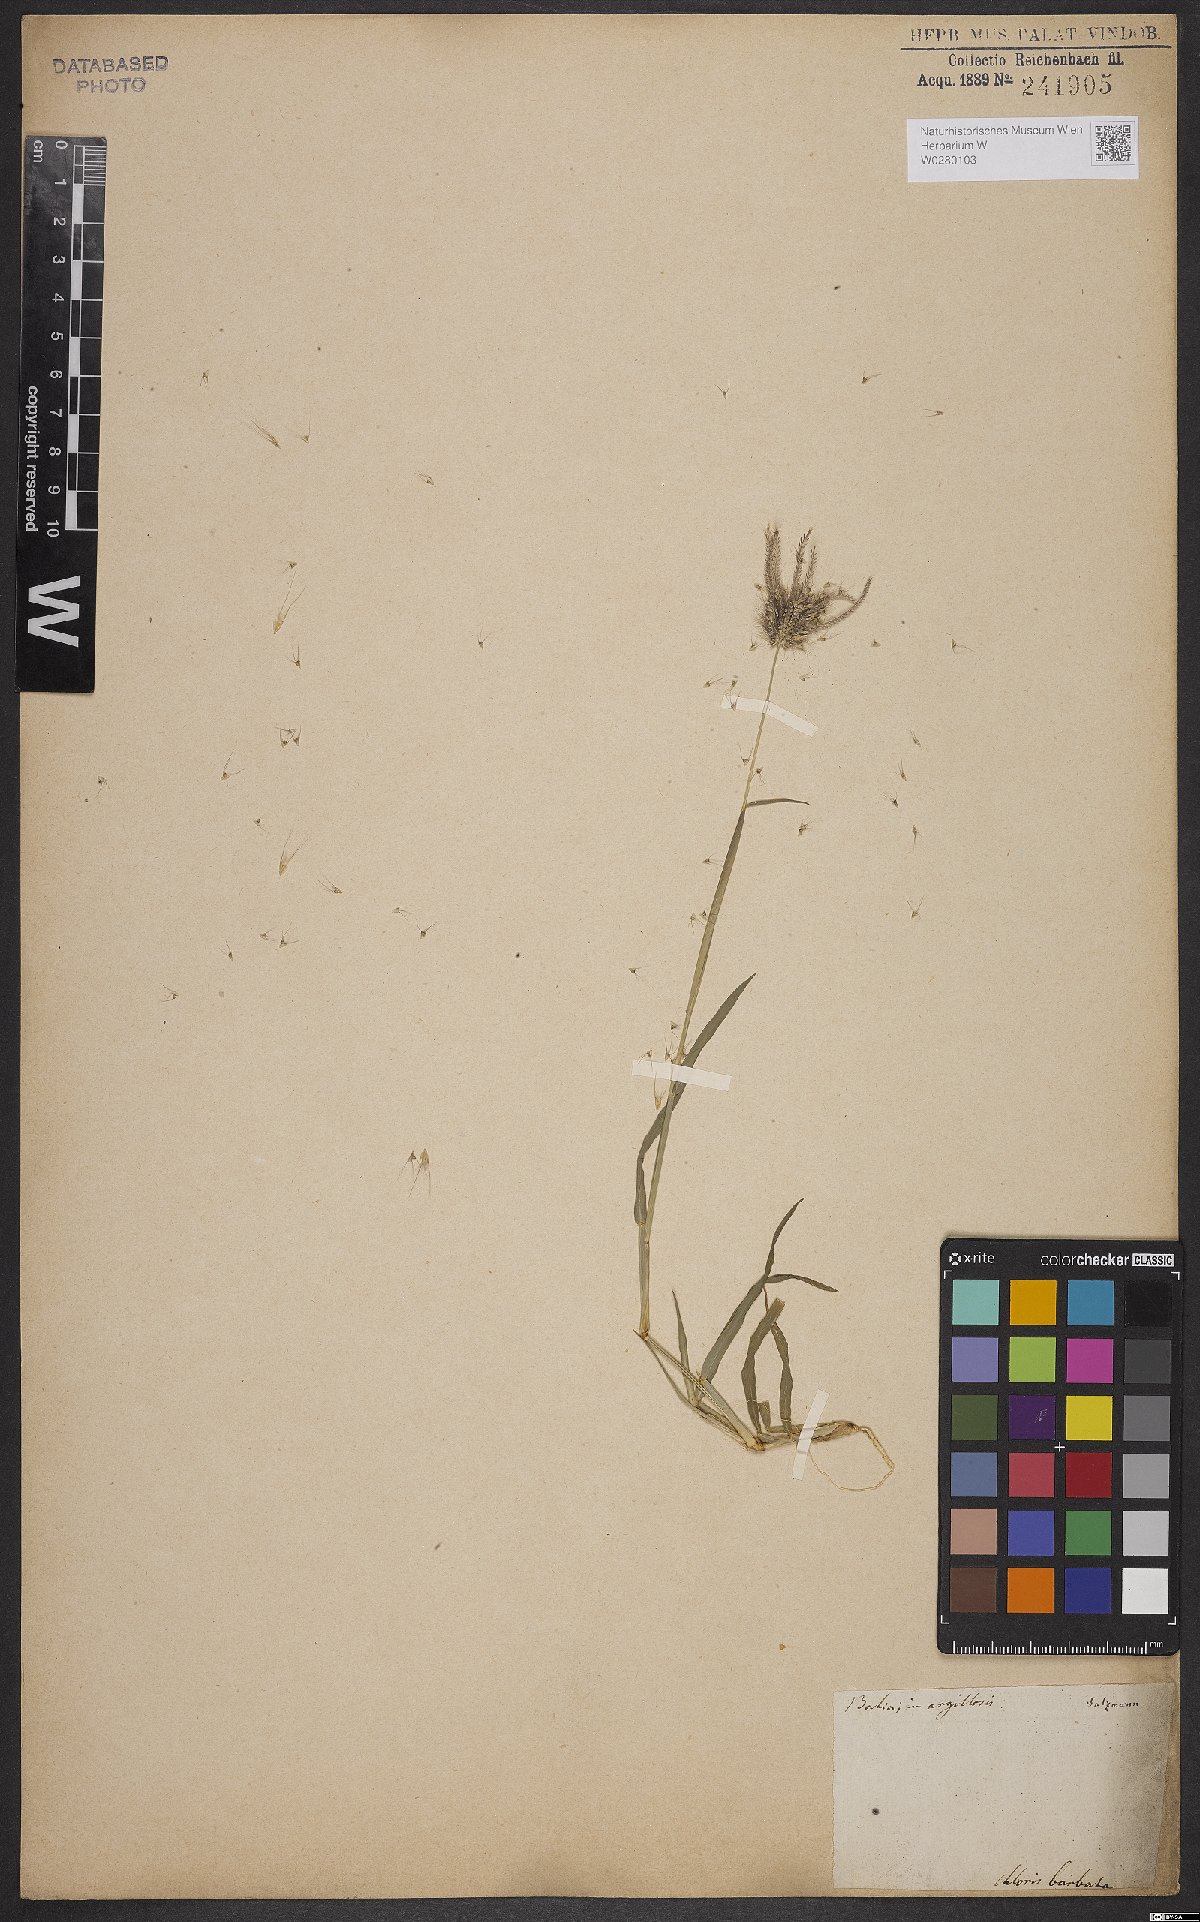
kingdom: Plantae
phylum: Tracheophyta
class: Liliopsida
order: Poales
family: Poaceae
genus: Chloris
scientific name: Chloris barbata
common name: Swollen fingergrass
